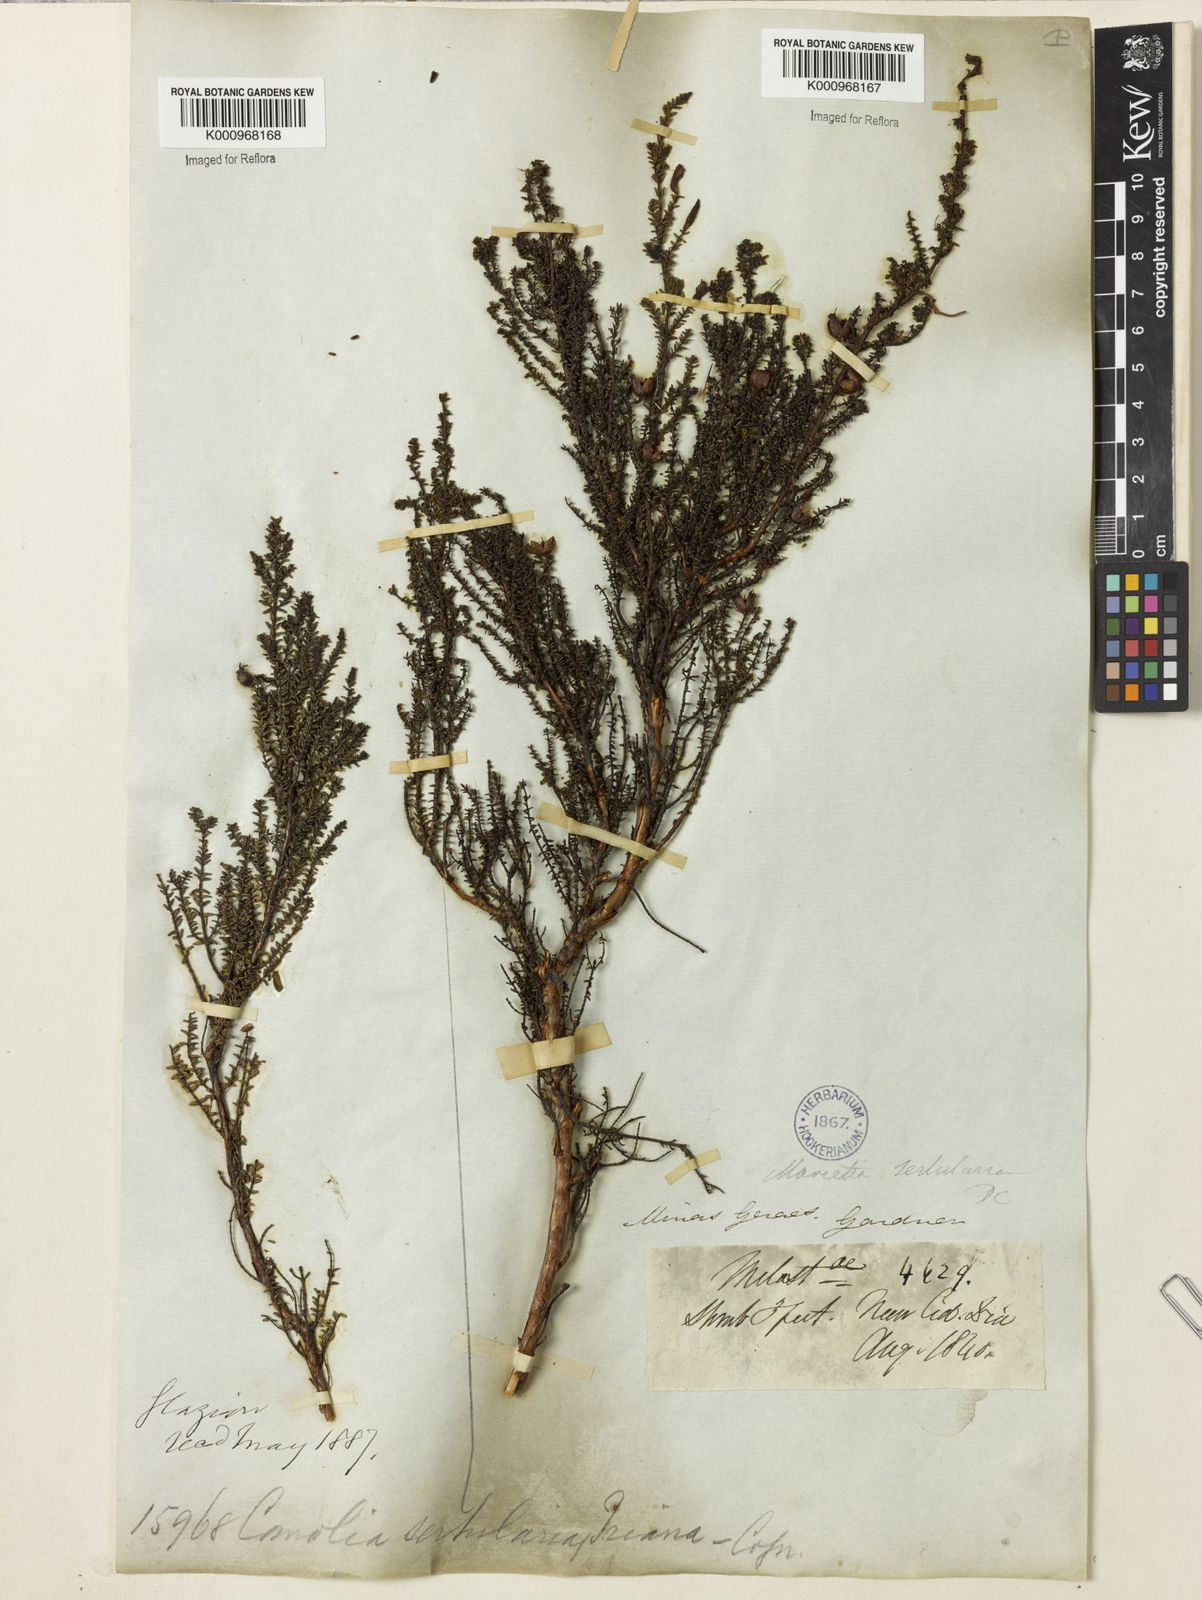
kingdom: Plantae
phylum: Tracheophyta
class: Magnoliopsida
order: Myrtales
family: Melastomataceae
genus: Fritzschia
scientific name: Fritzschia sertularia
